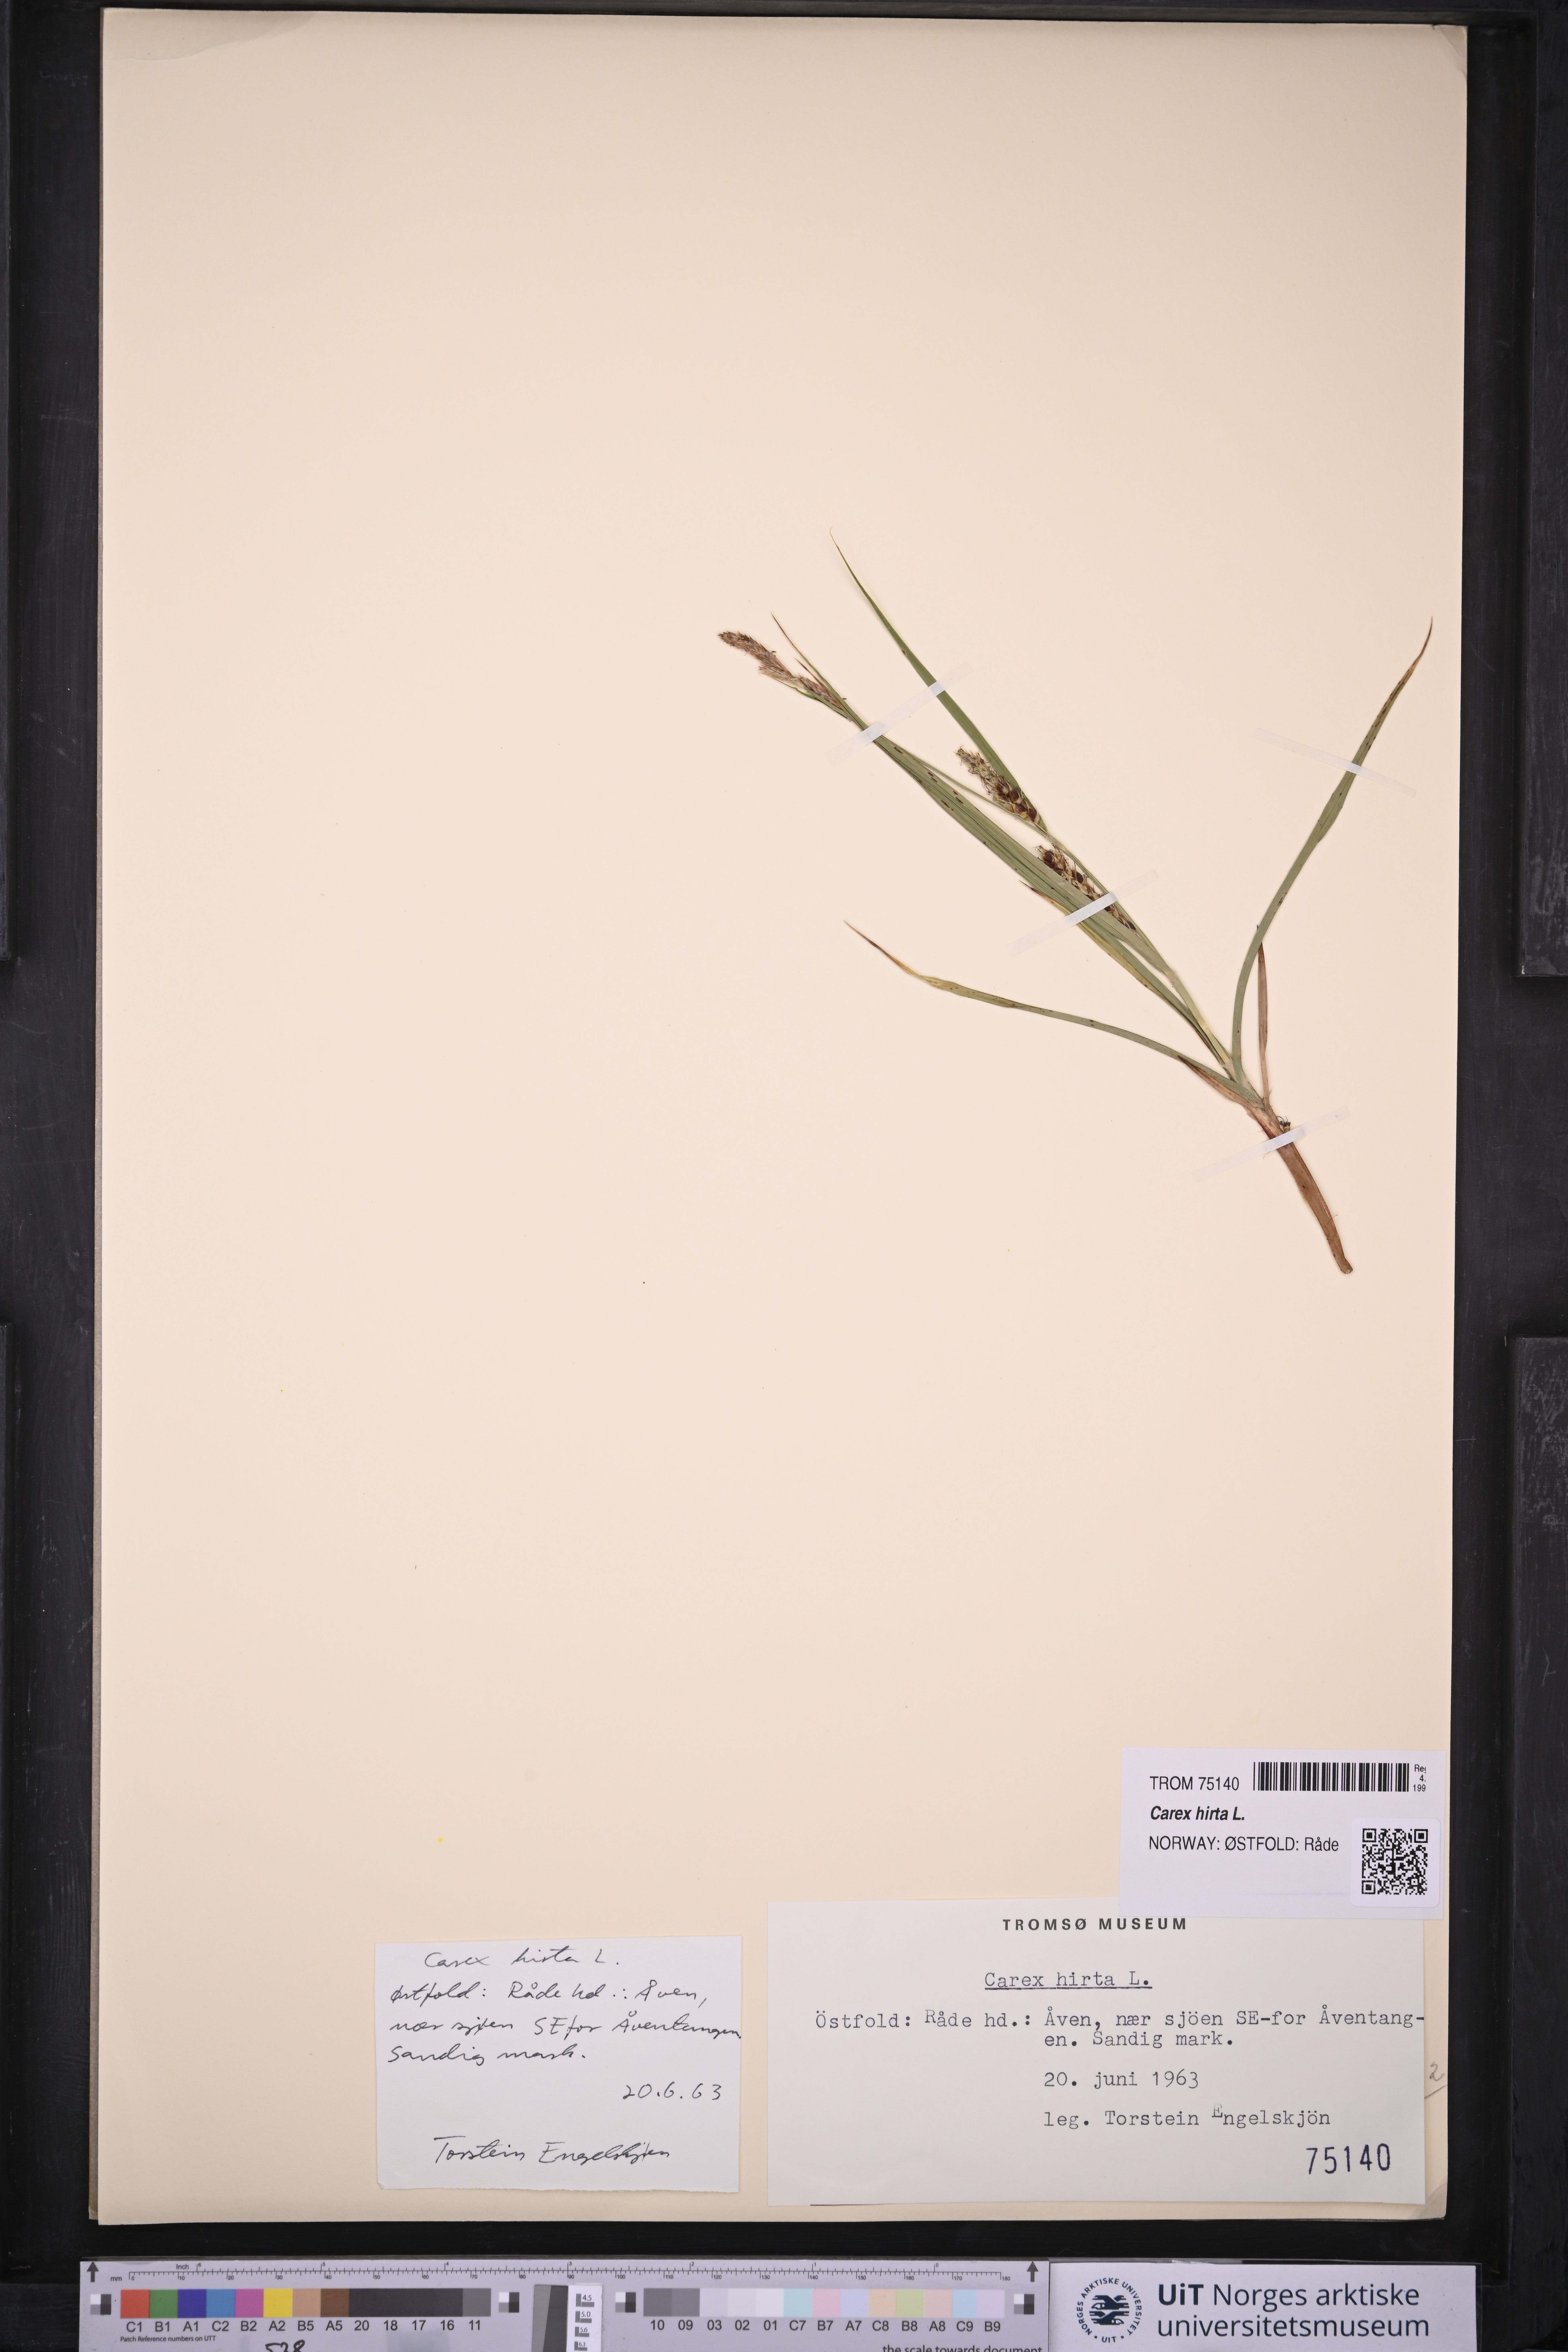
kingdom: Plantae
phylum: Tracheophyta
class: Liliopsida
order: Poales
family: Cyperaceae
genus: Carex
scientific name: Carex hirta
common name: Hairy sedge
